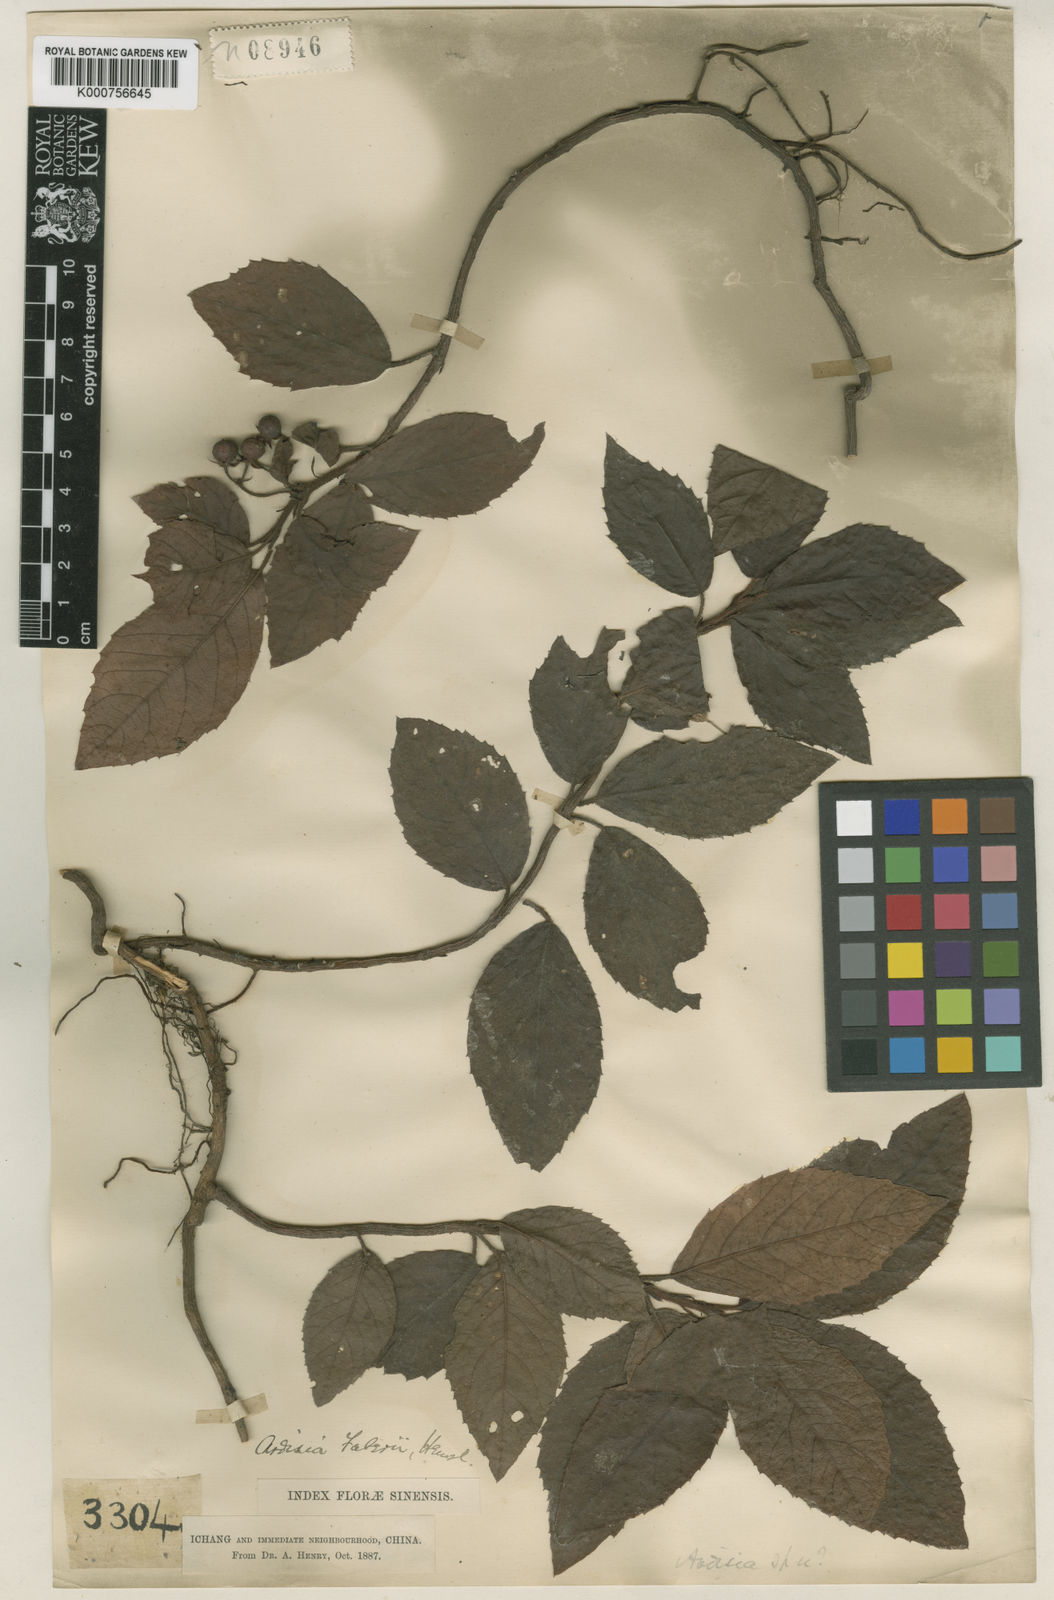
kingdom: Plantae
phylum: Tracheophyta
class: Magnoliopsida
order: Ericales
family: Primulaceae
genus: Ardisia
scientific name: Ardisia faberi
